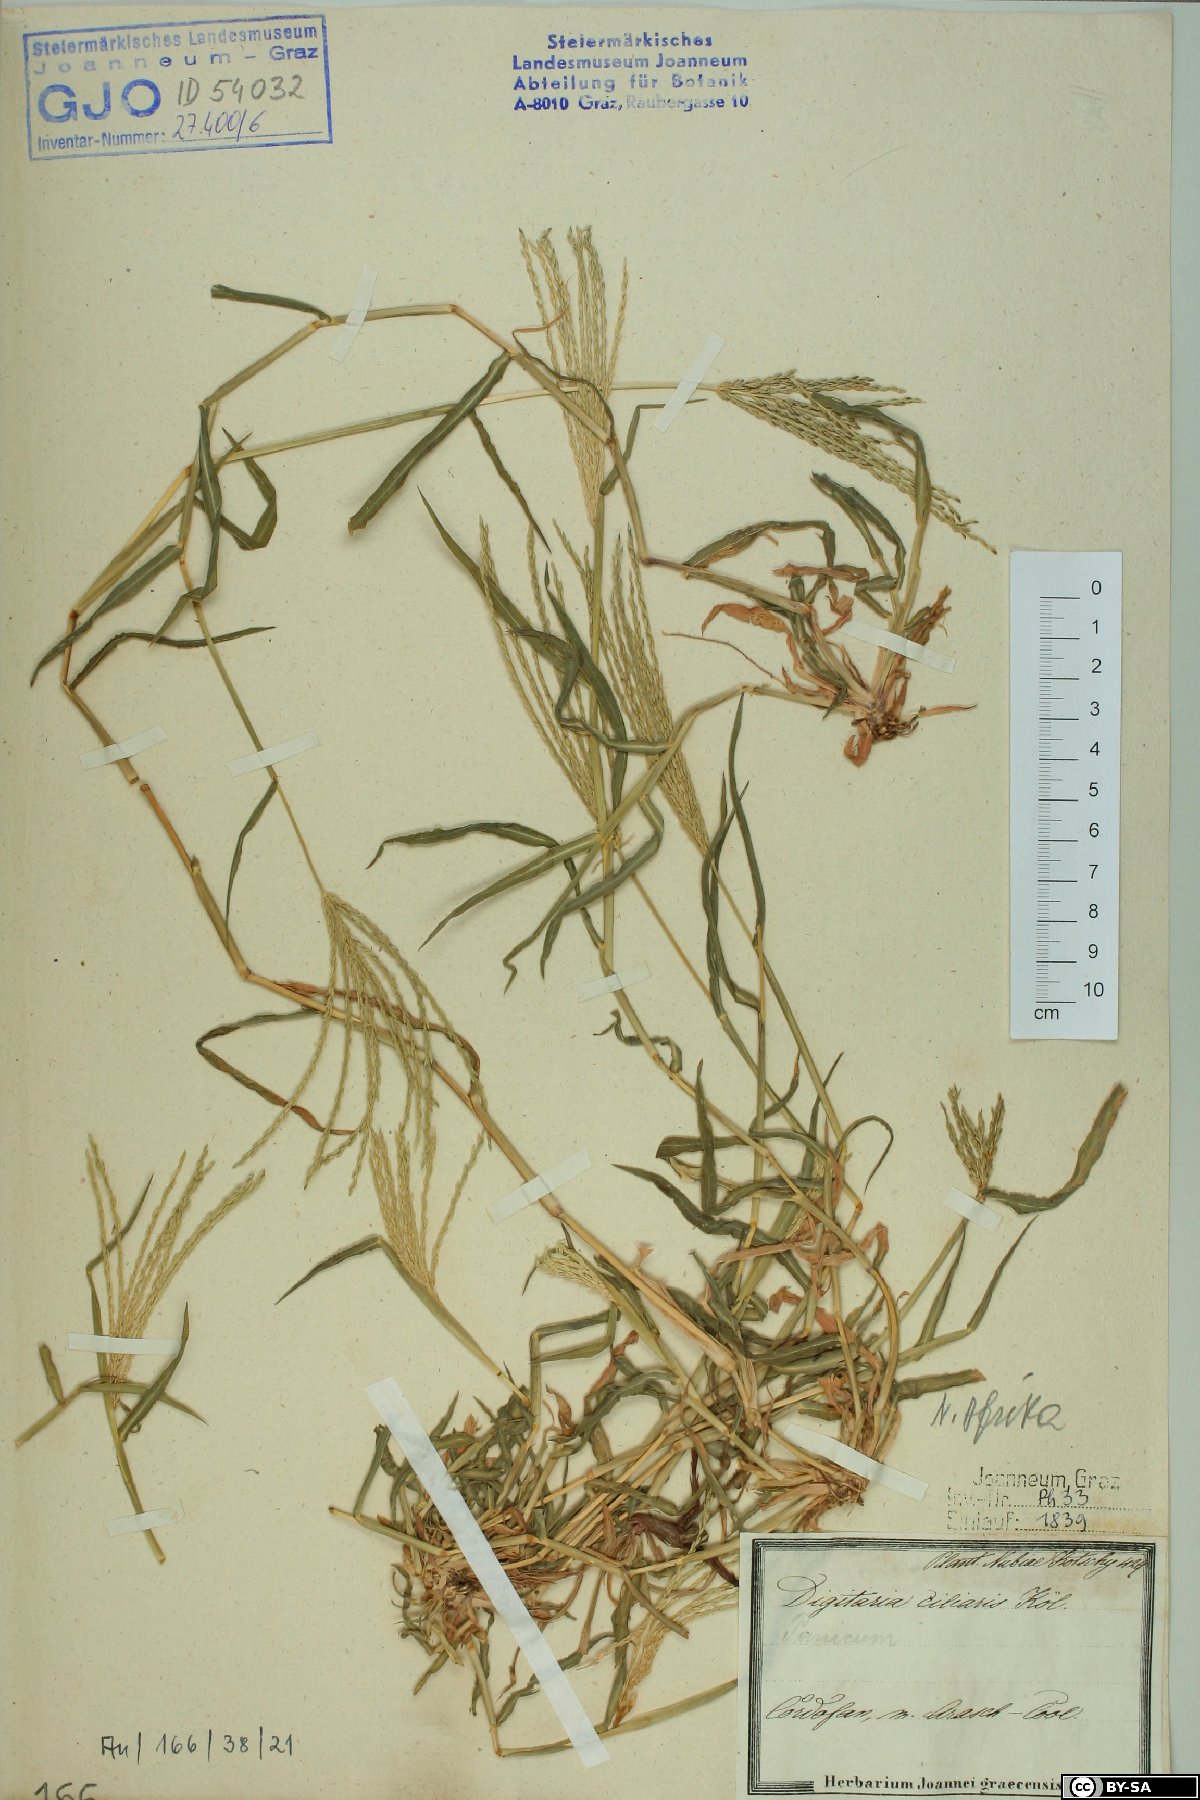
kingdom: Plantae
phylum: Tracheophyta
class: Liliopsida
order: Poales
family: Poaceae
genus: Digitaria
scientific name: Digitaria ciliaris
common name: Tropical finger-grass
